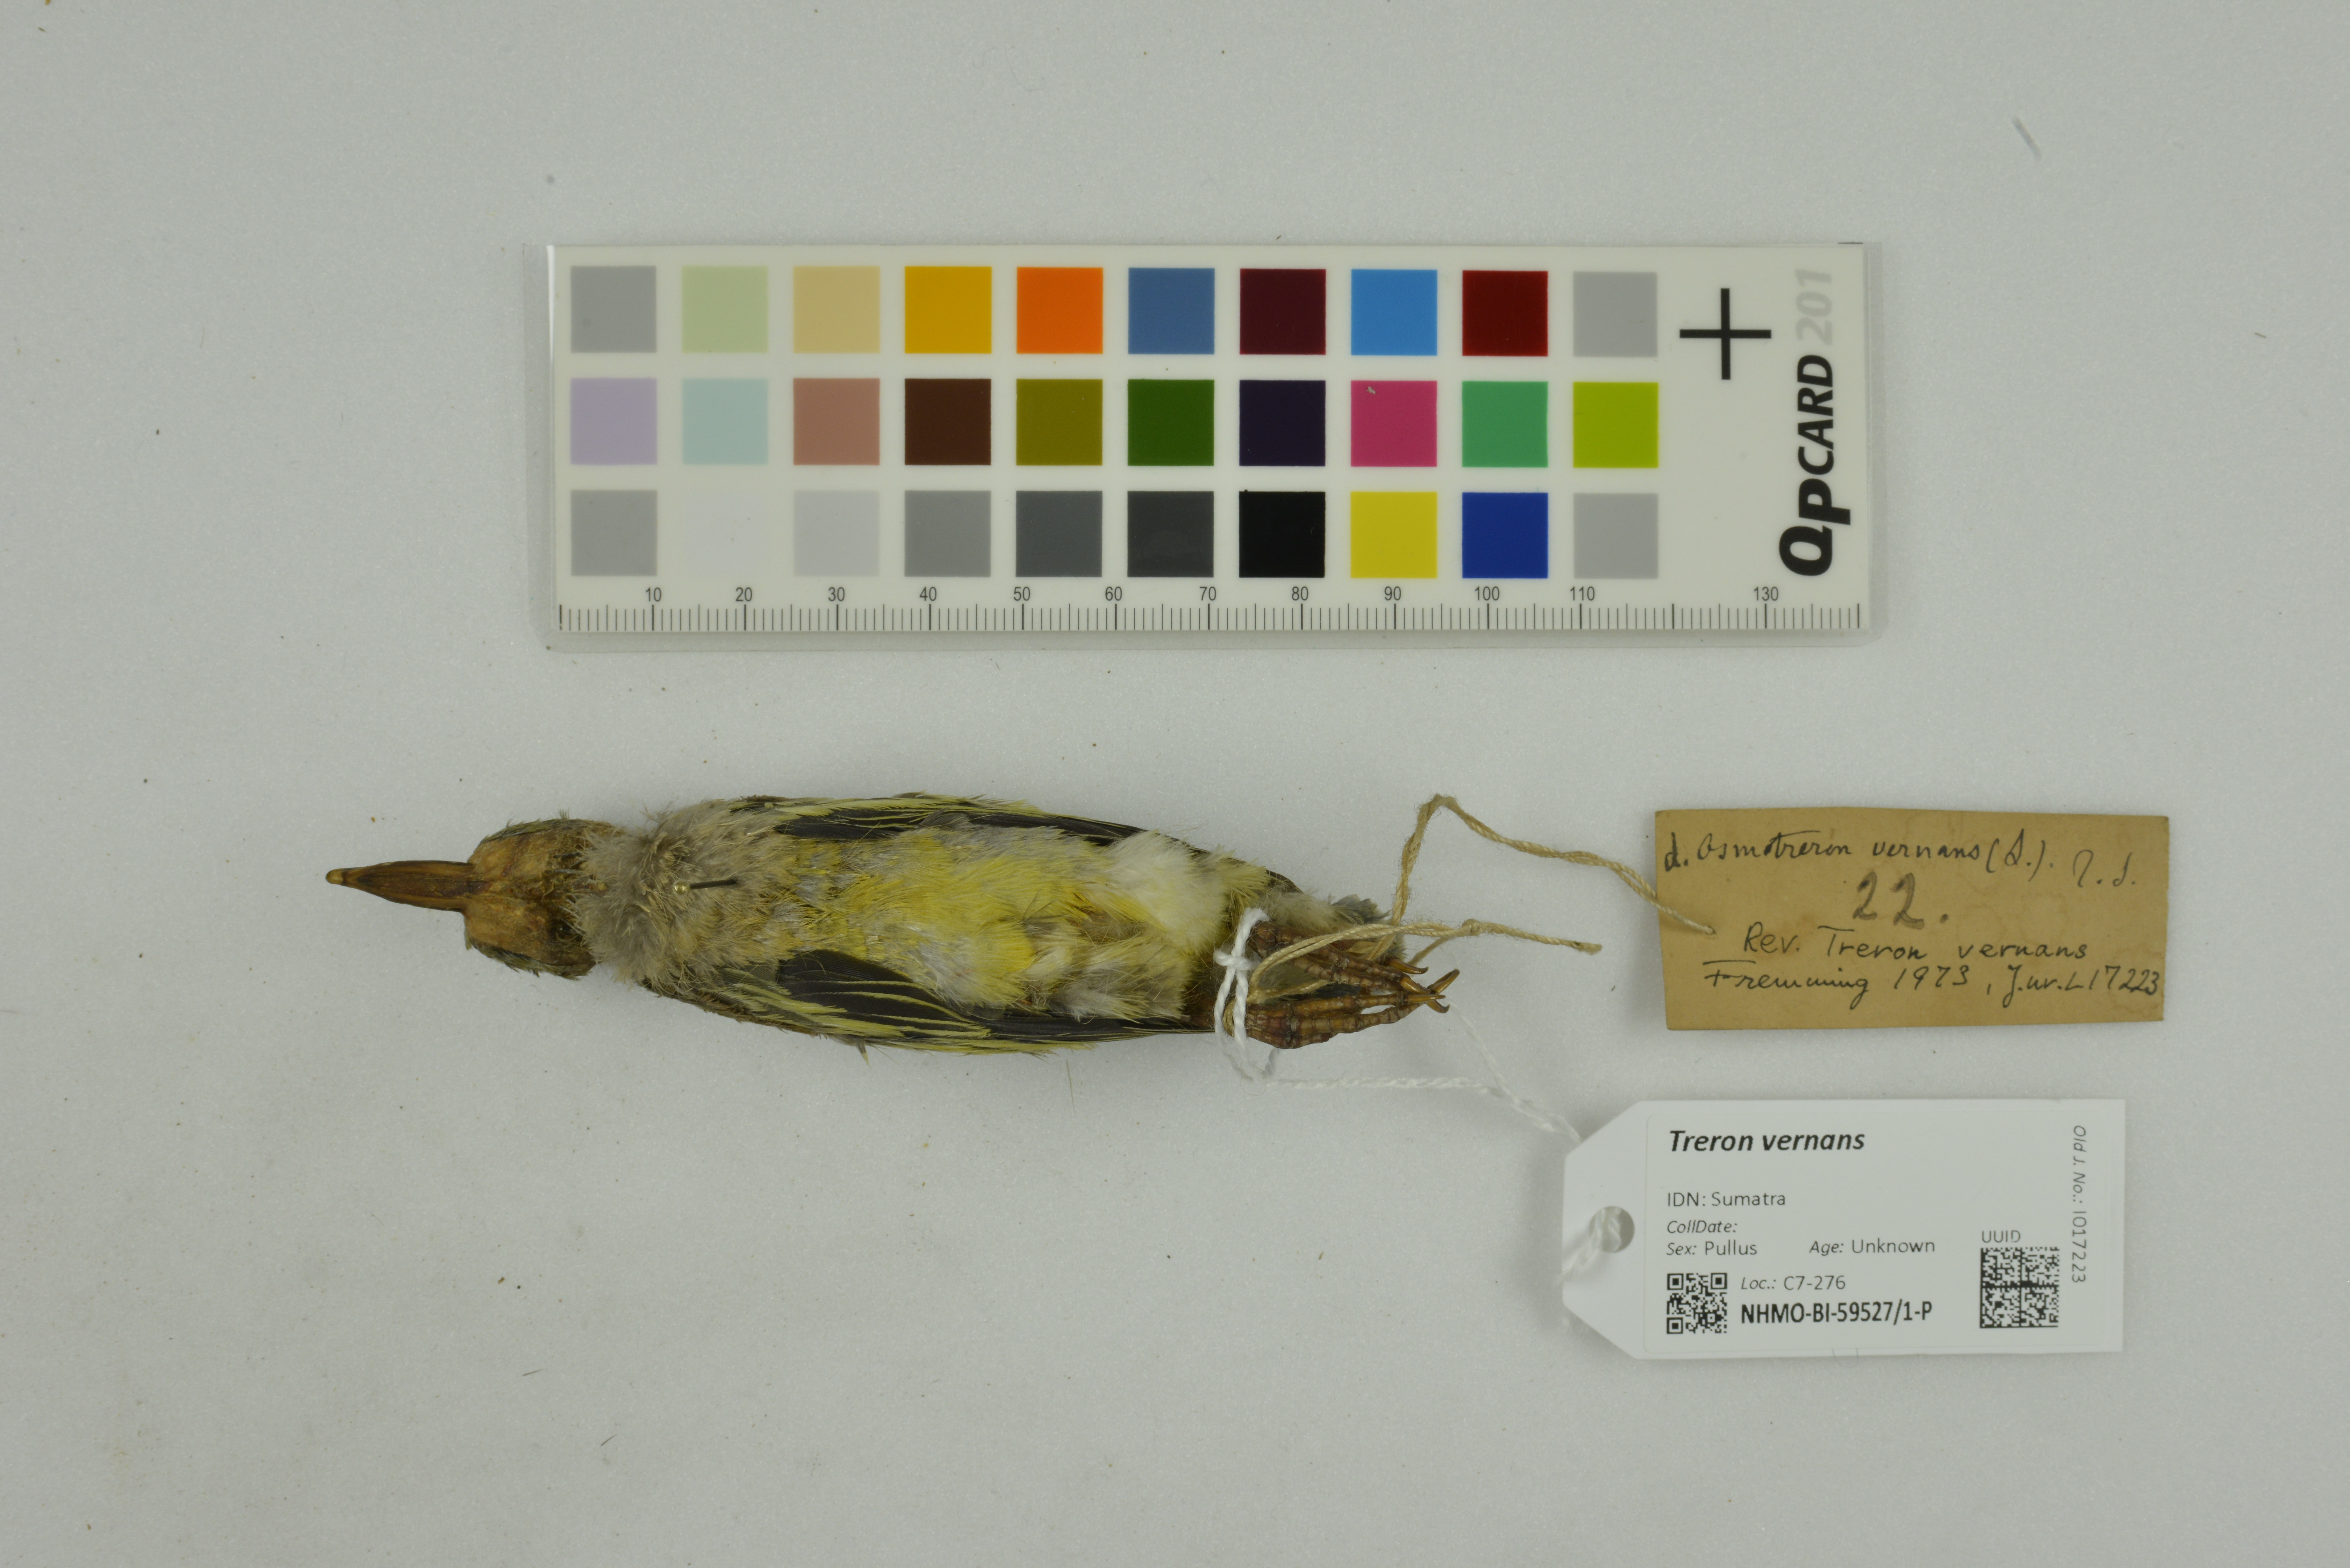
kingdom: Animalia
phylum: Chordata
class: Aves
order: Columbiformes
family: Columbidae
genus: Treron
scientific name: Treron vernans
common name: Pink-necked green pigeon
